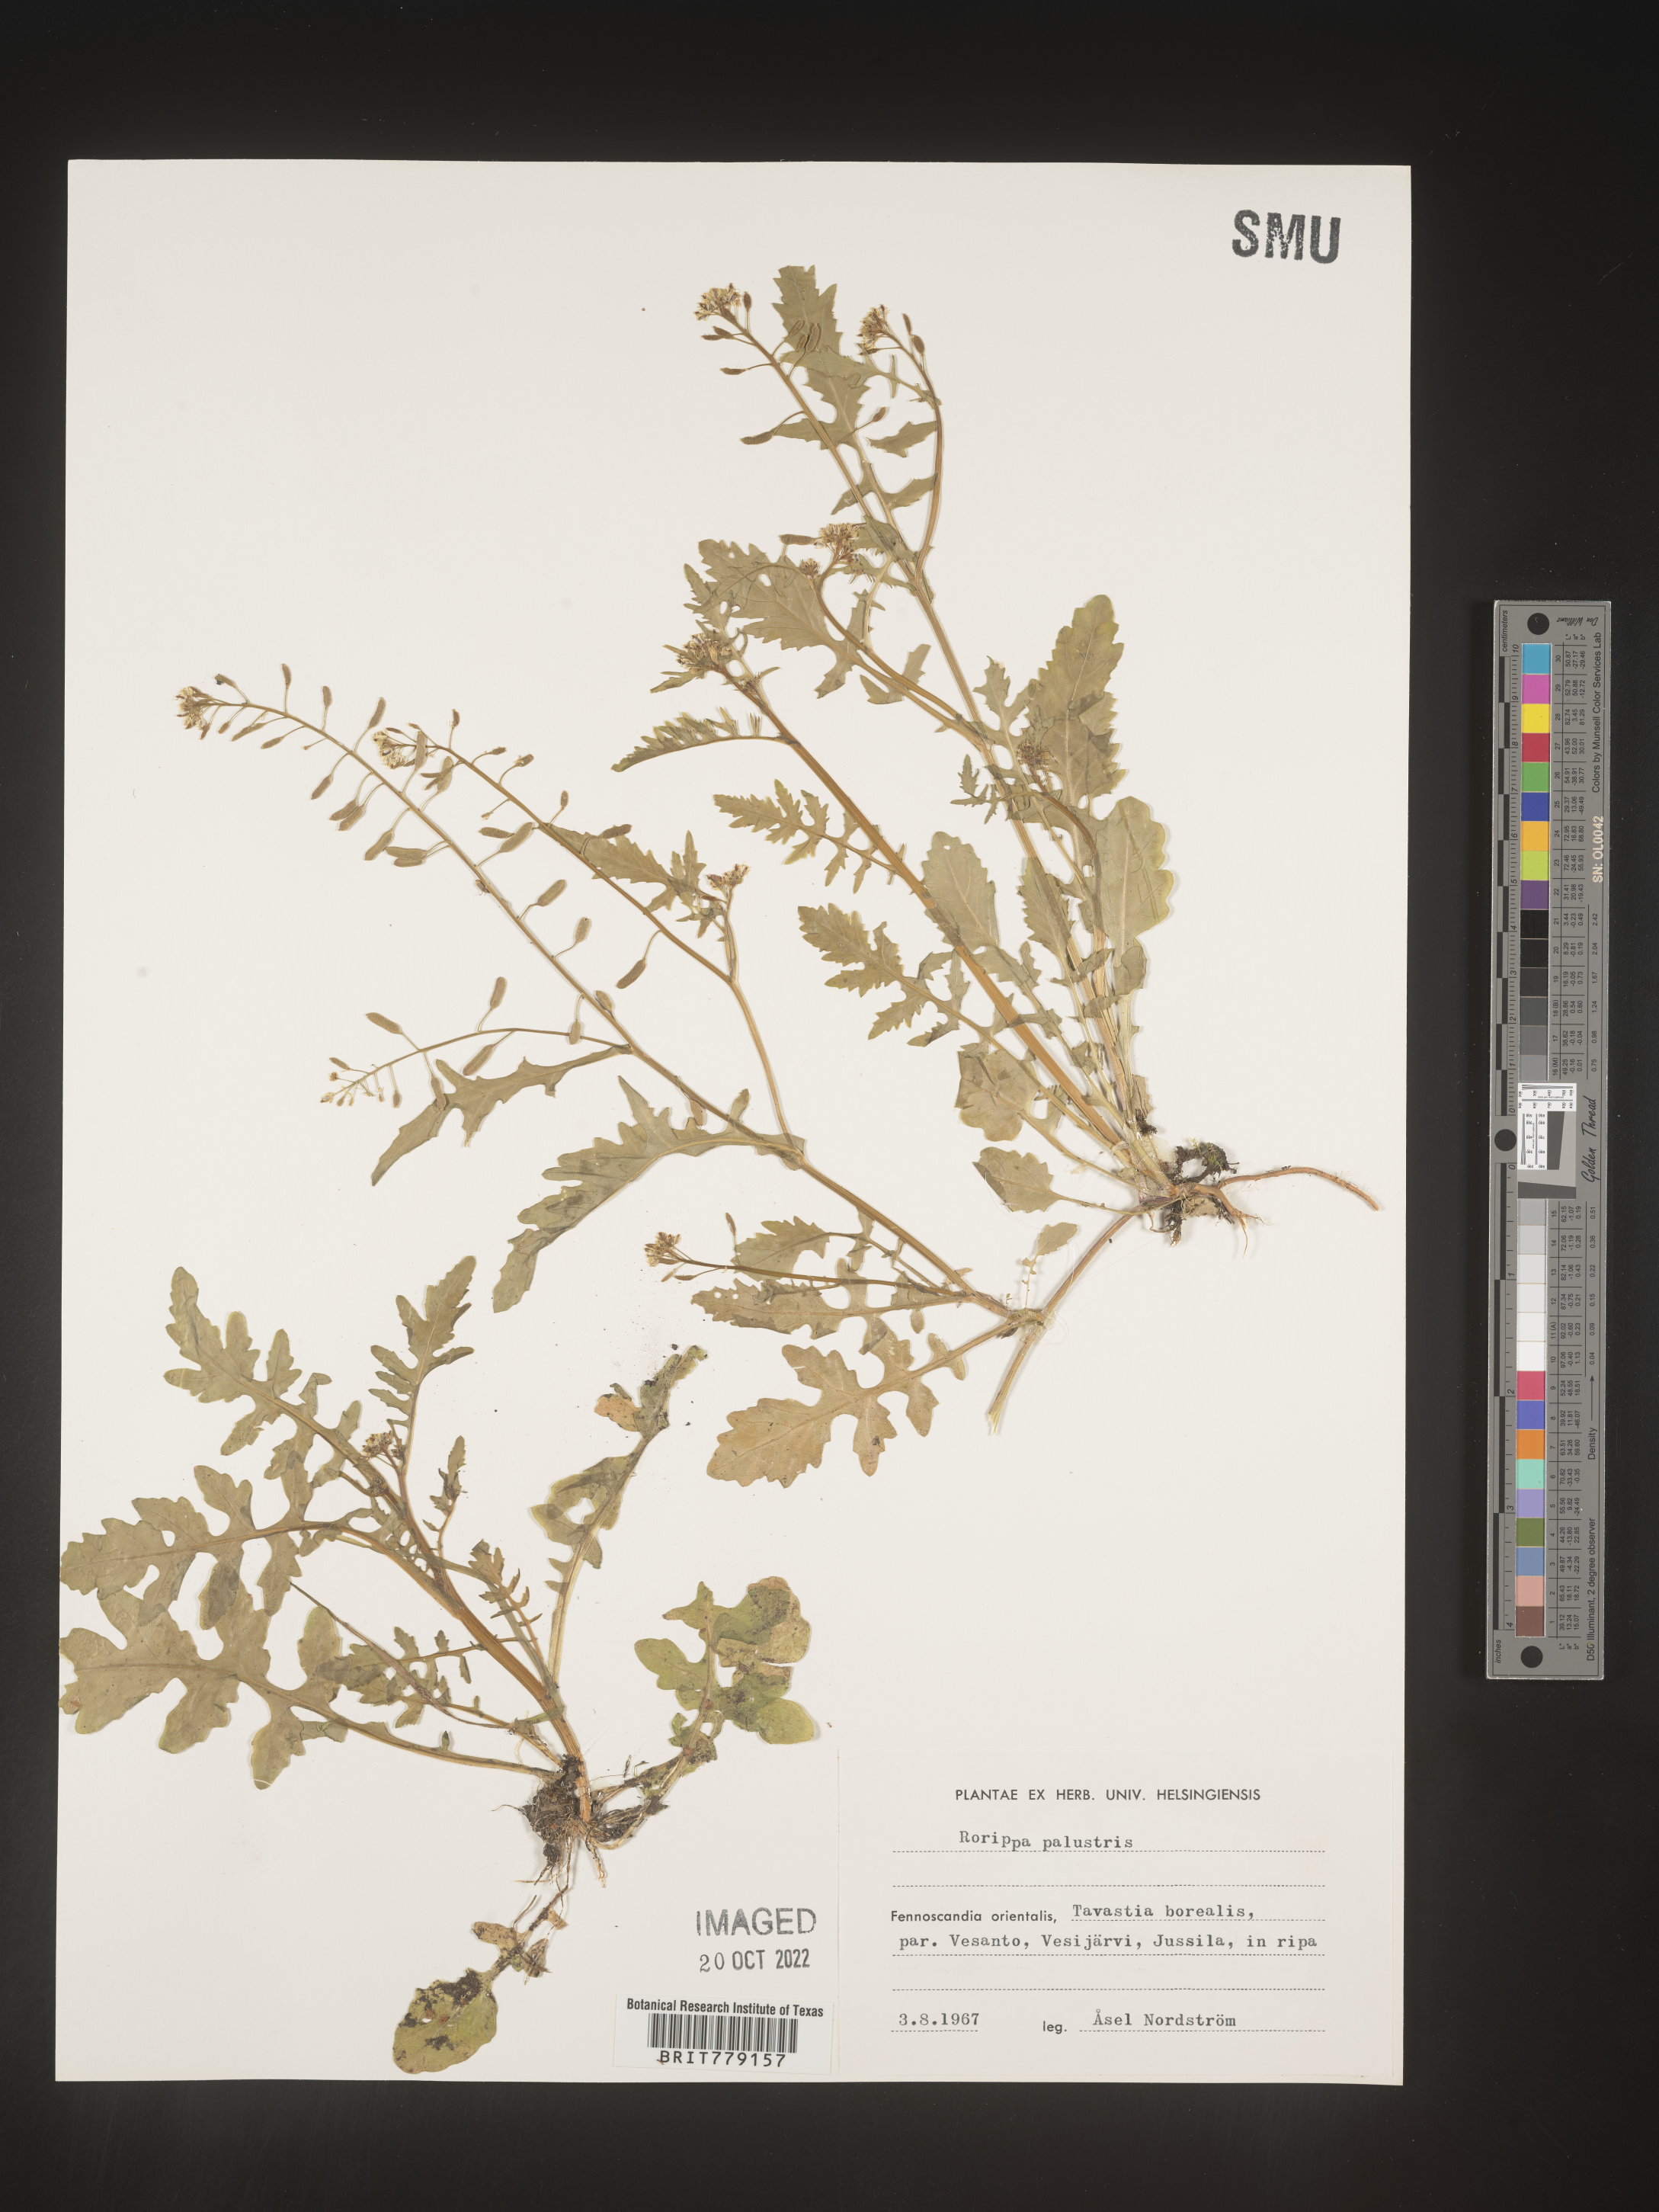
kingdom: Plantae
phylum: Tracheophyta
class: Magnoliopsida
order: Brassicales
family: Brassicaceae
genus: Rorippa
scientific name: Rorippa
